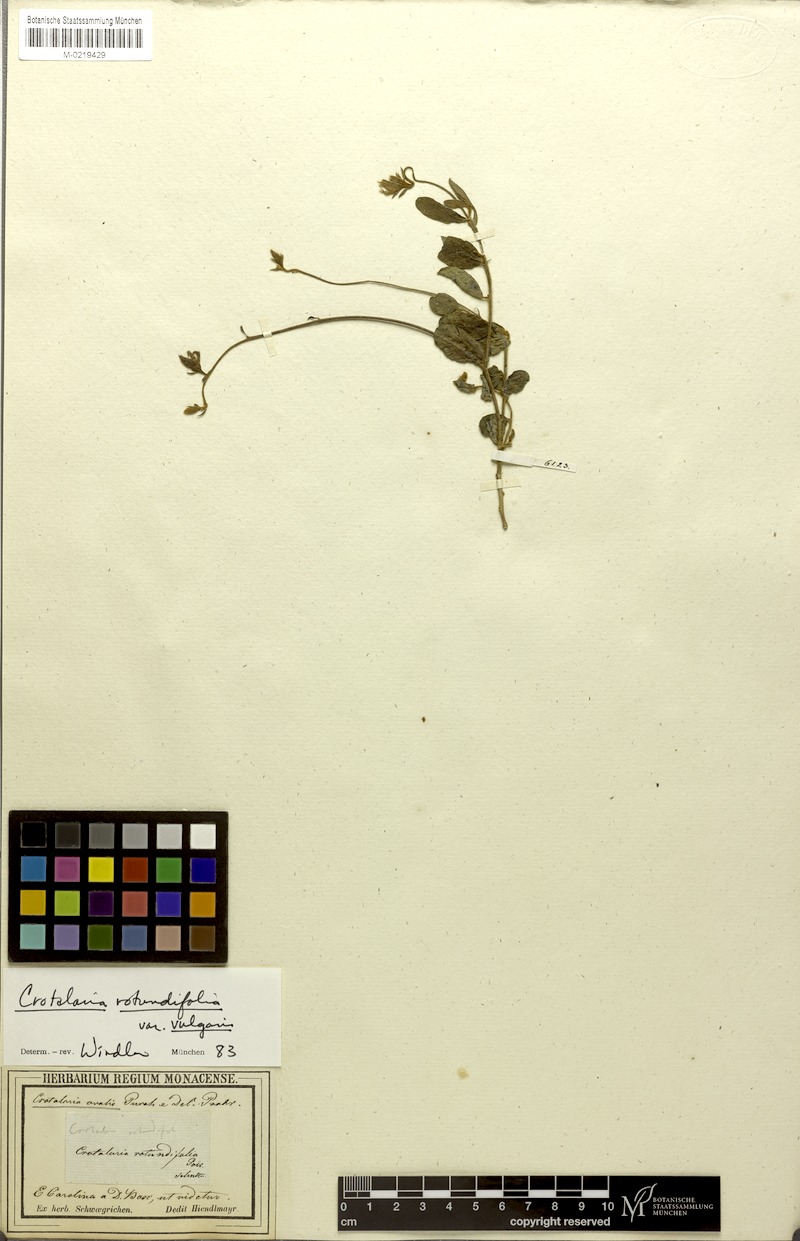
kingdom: Plantae
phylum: Tracheophyta
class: Magnoliopsida
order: Fabales
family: Fabaceae
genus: Crotalaria
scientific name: Crotalaria rotundifolia
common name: Prostrate rattlebox
